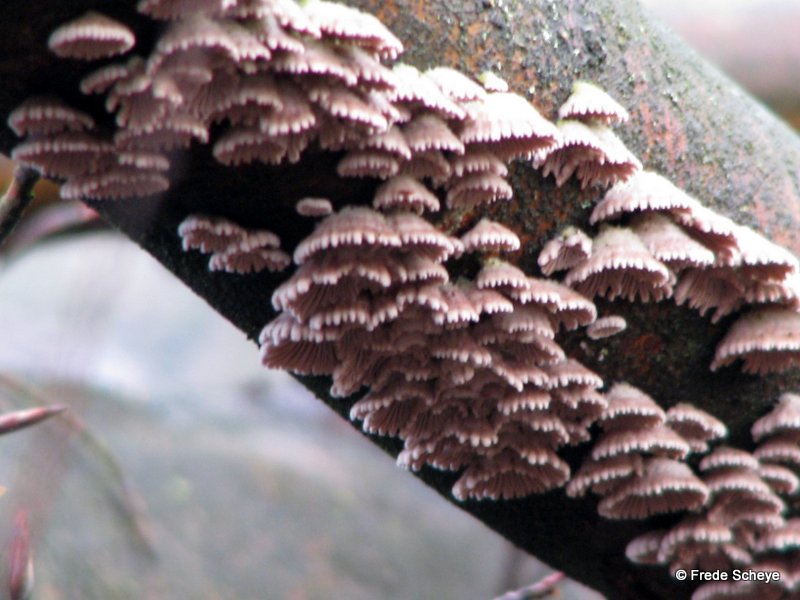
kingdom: Fungi
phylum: Basidiomycota
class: Agaricomycetes
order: Agaricales
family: Schizophyllaceae
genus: Schizophyllum
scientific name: Schizophyllum commune
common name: kløvblad
